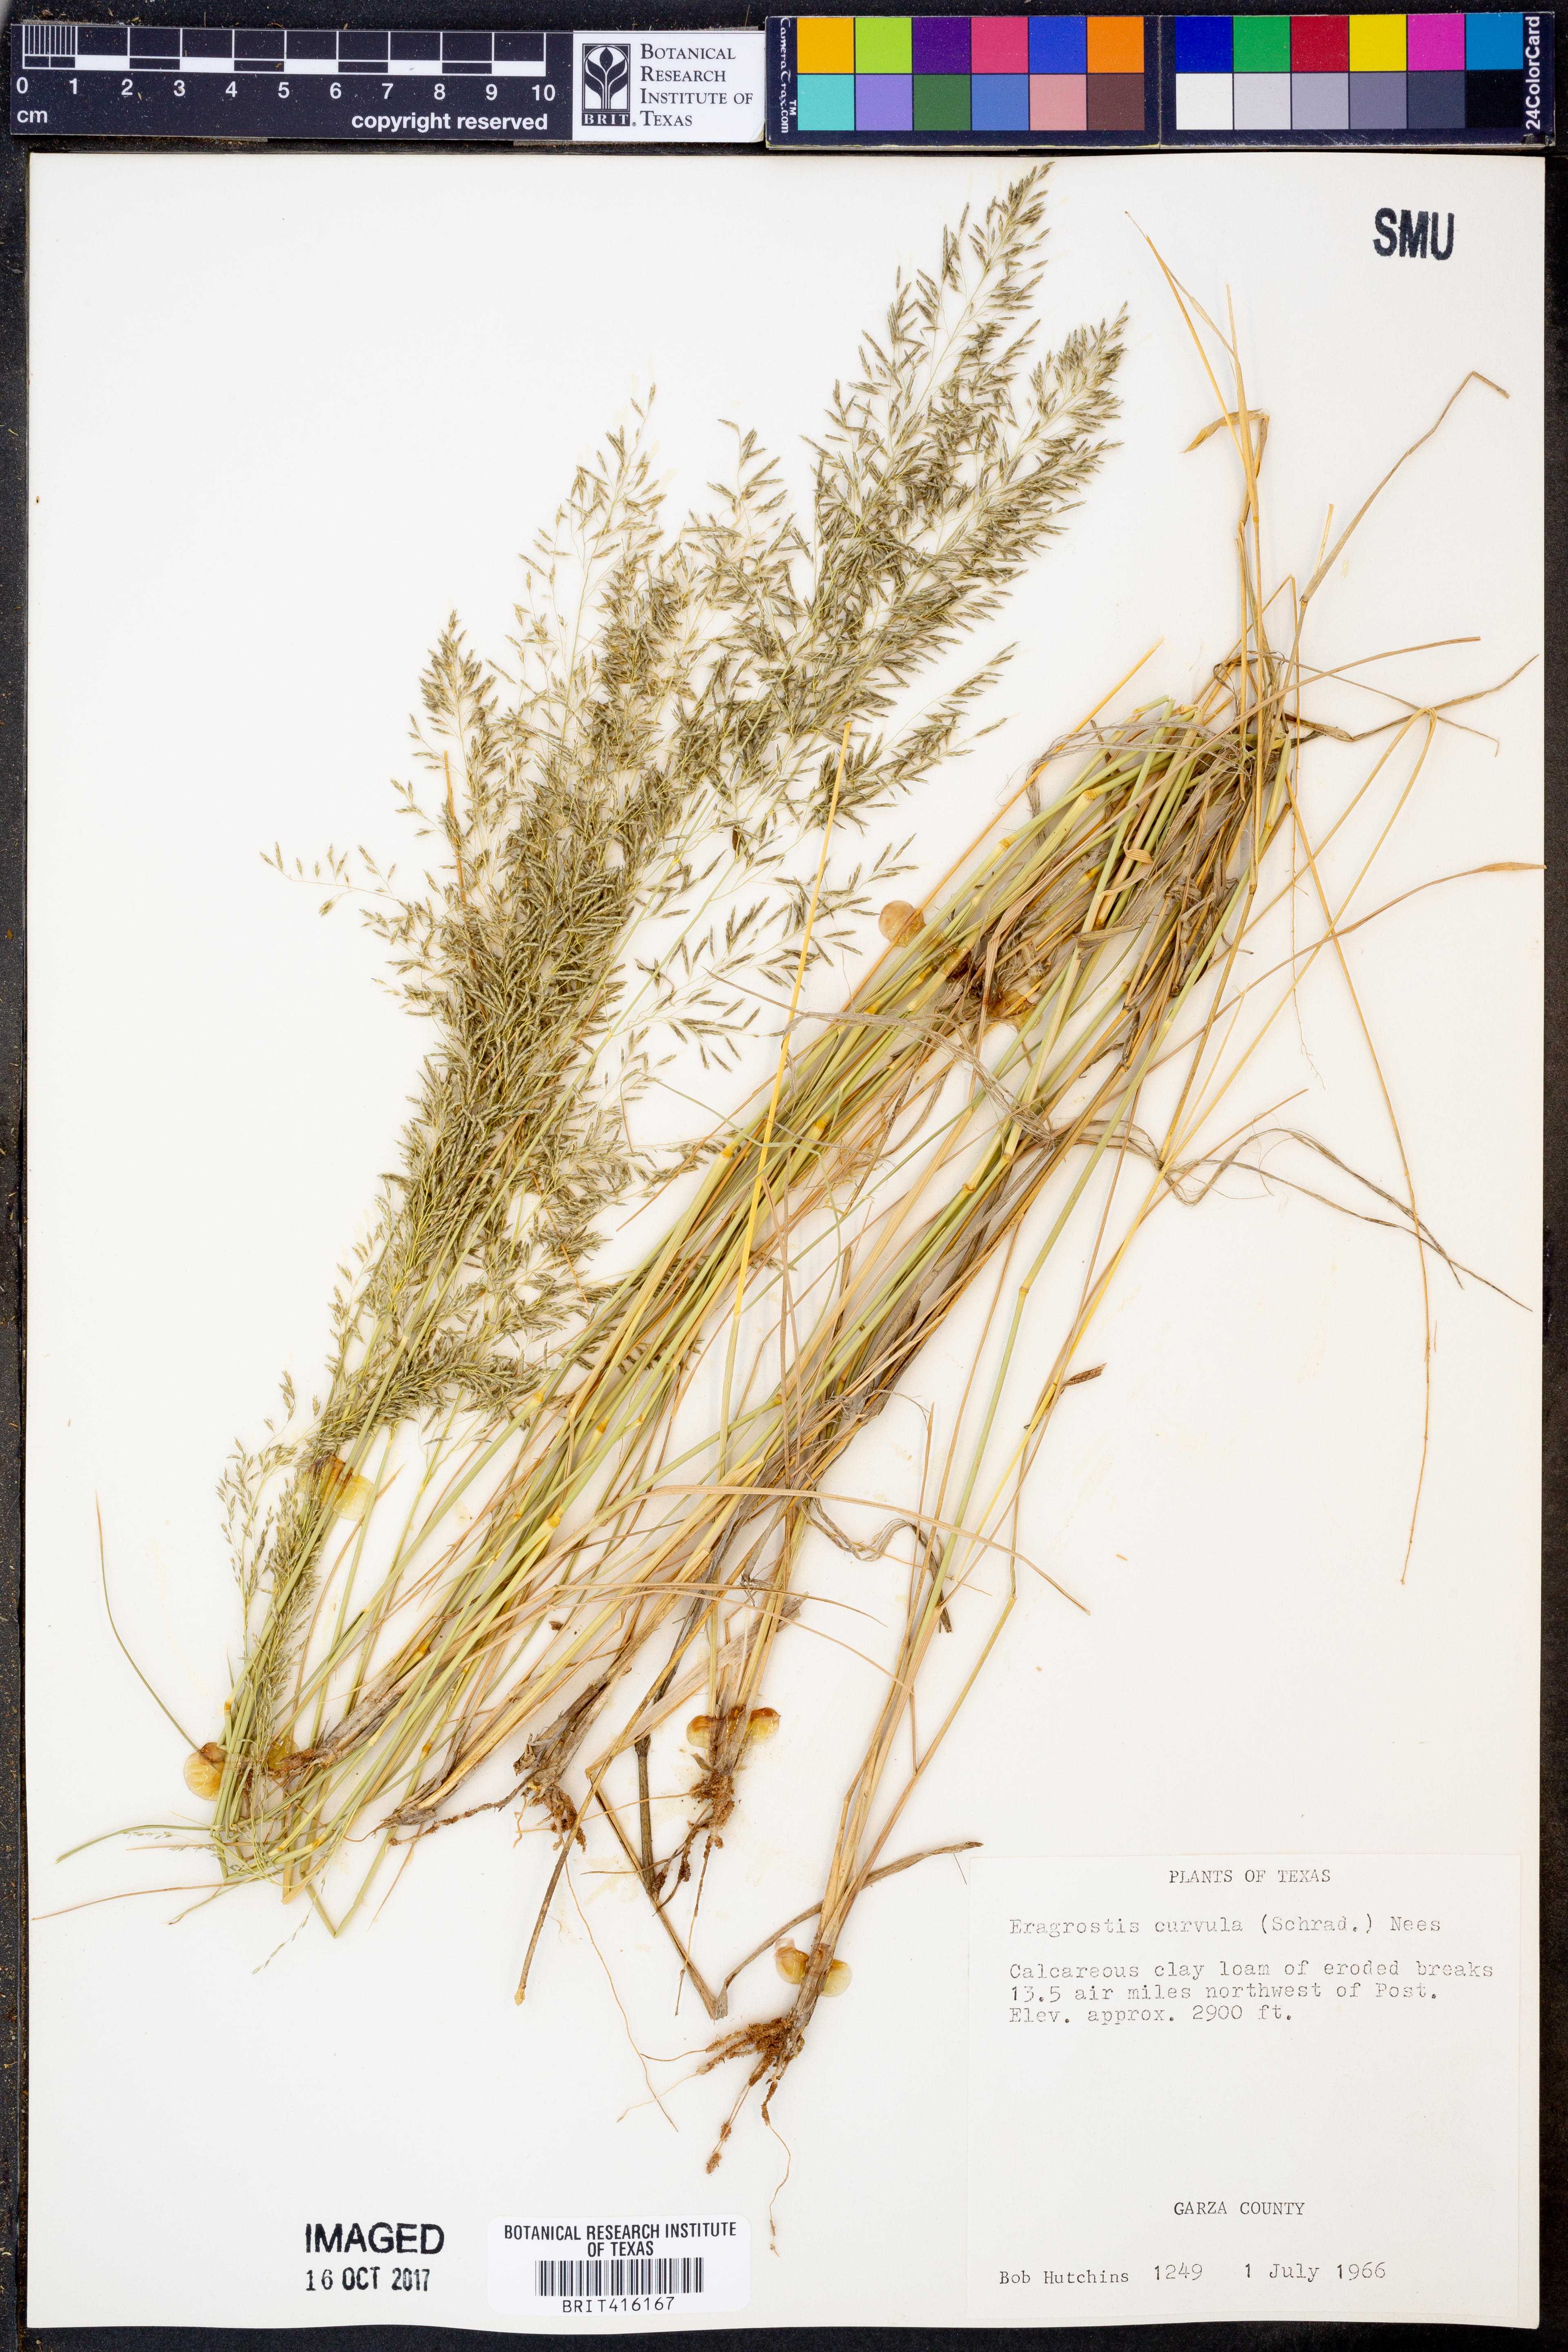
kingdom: Plantae
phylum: Tracheophyta
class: Liliopsida
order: Poales
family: Poaceae
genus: Eragrostis
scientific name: Eragrostis curvula
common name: African love-grass
